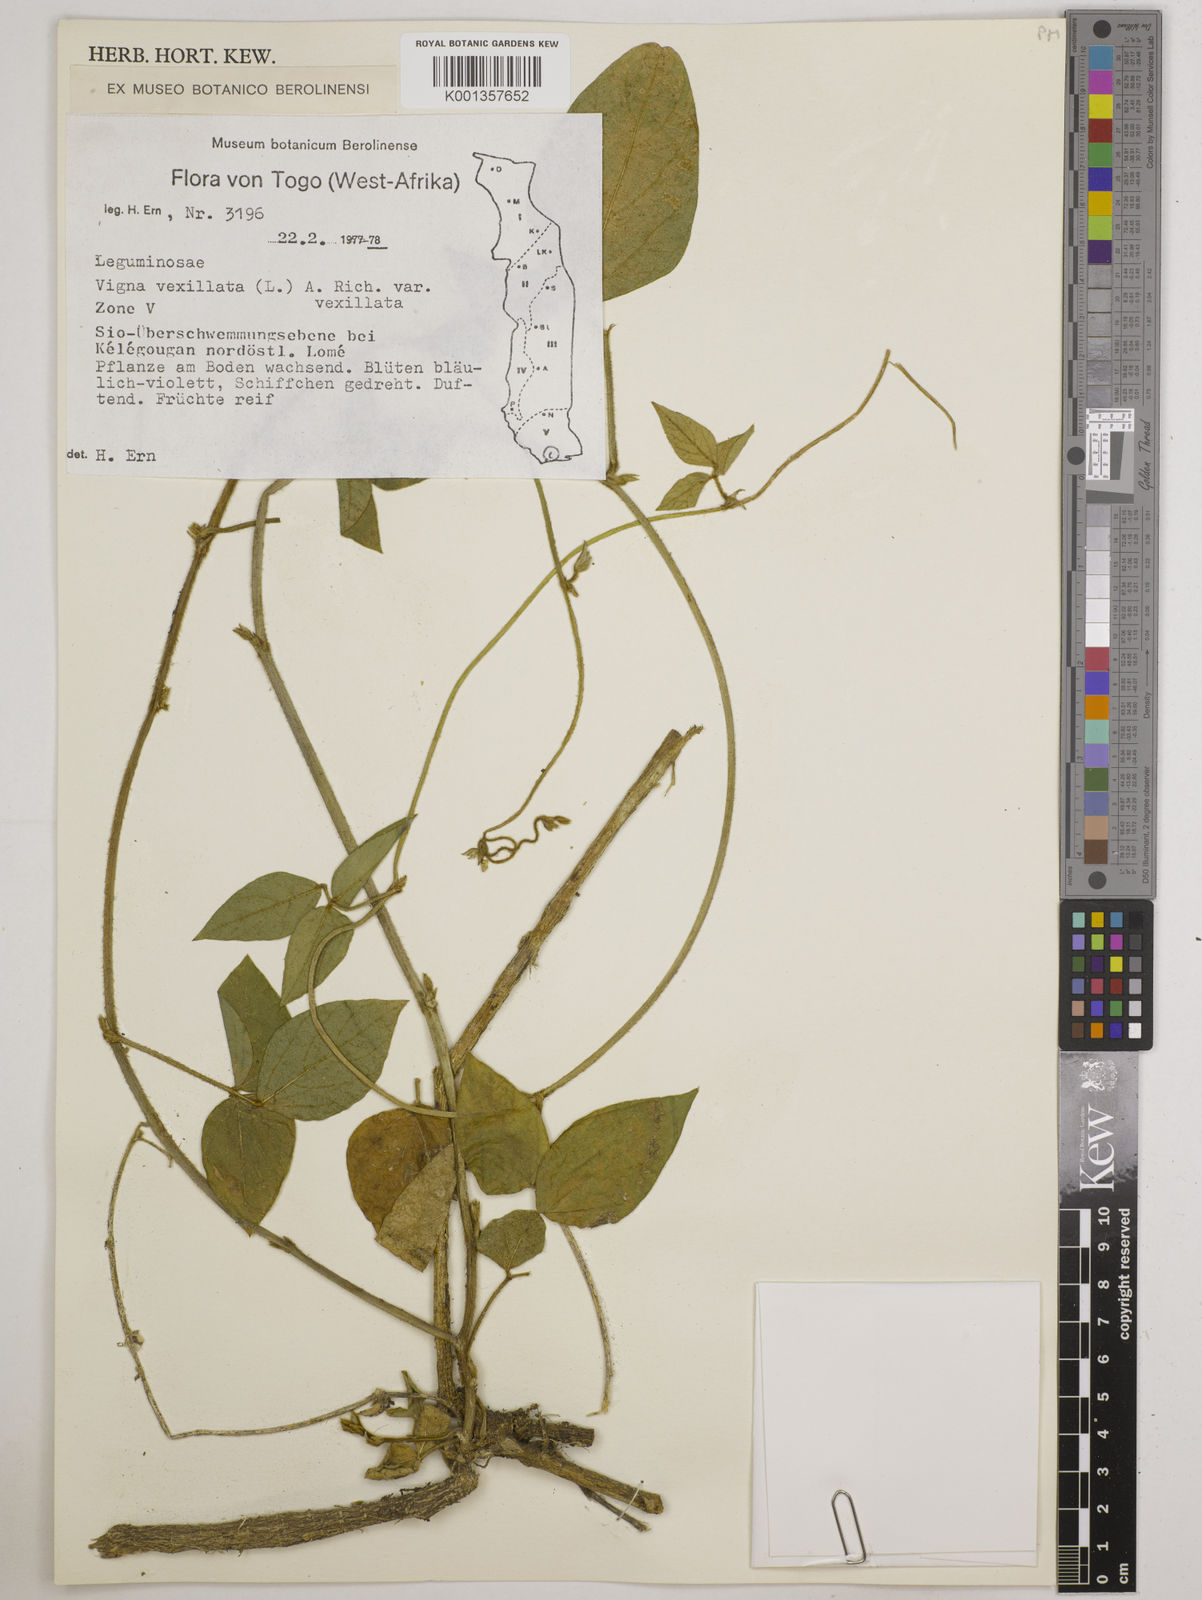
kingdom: Plantae
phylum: Tracheophyta
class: Magnoliopsida
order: Fabales
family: Fabaceae
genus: Vigna
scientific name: Vigna vexillata
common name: Zombi pea
